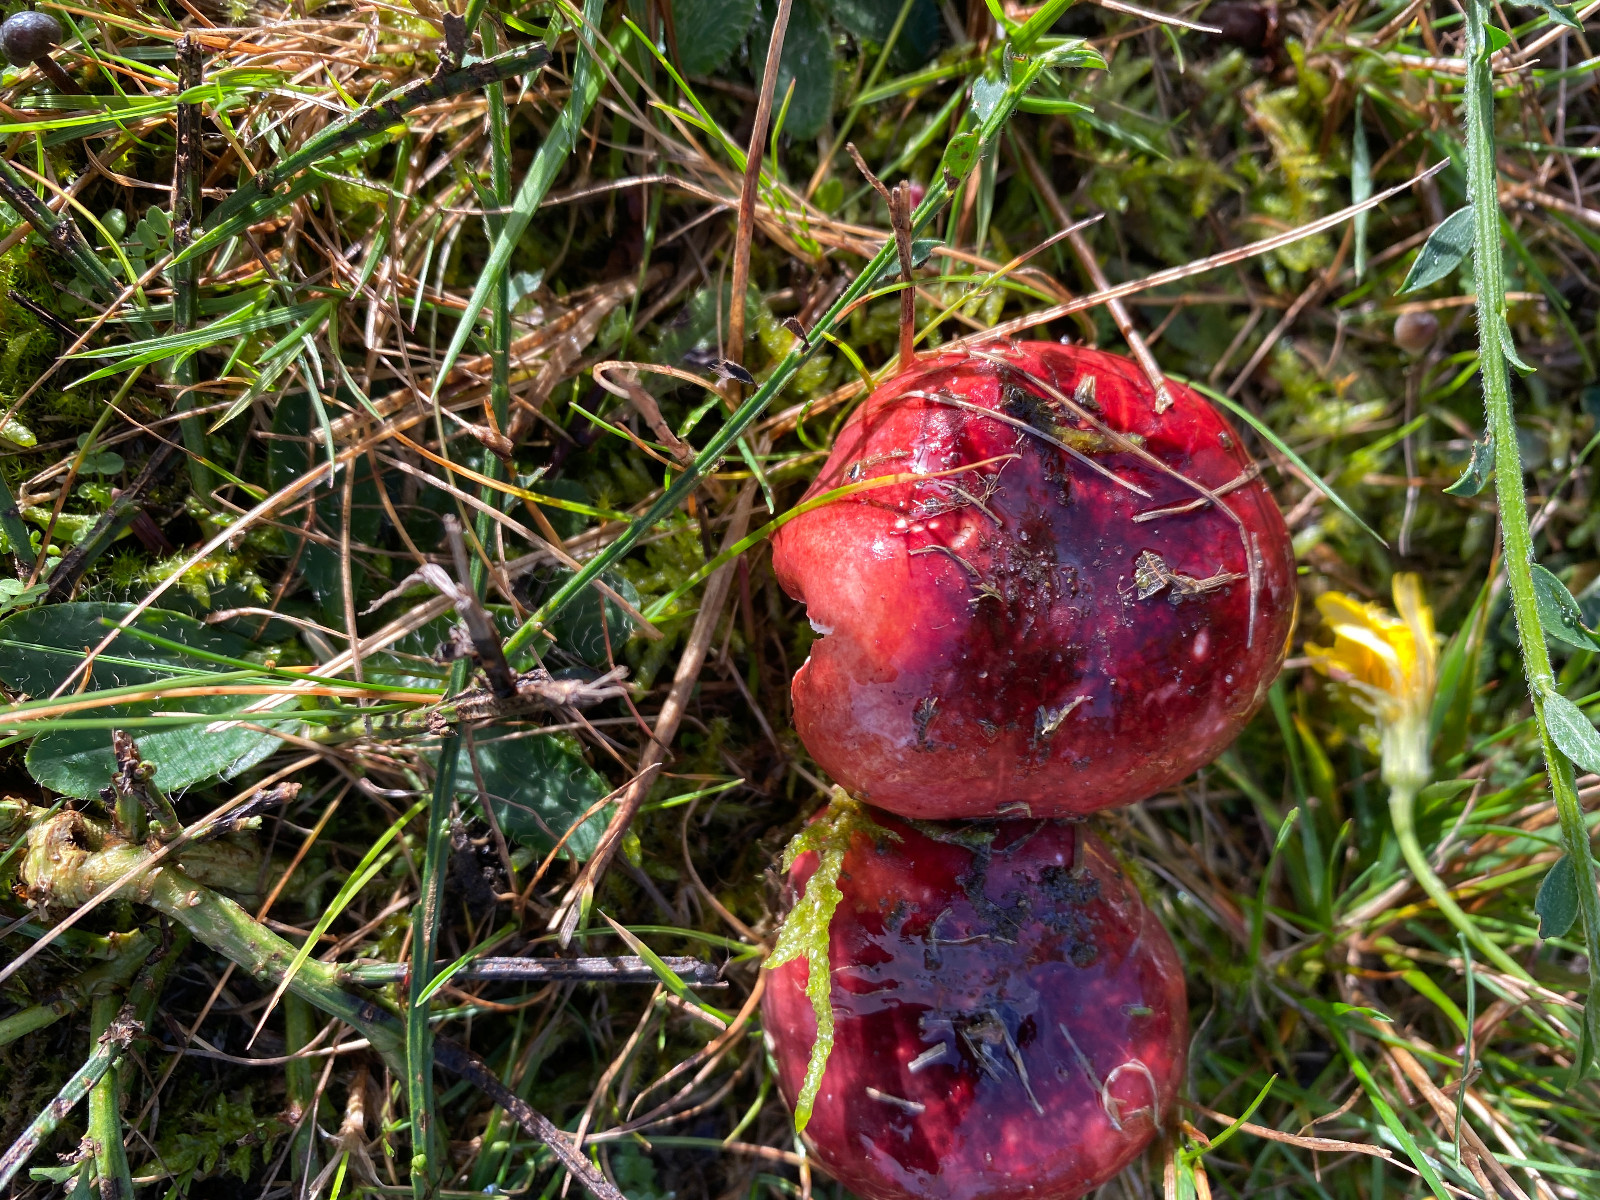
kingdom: Fungi
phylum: Basidiomycota
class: Agaricomycetes
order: Russulales
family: Russulaceae
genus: Russula
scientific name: Russula fragilis
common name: savbladet skørhat
